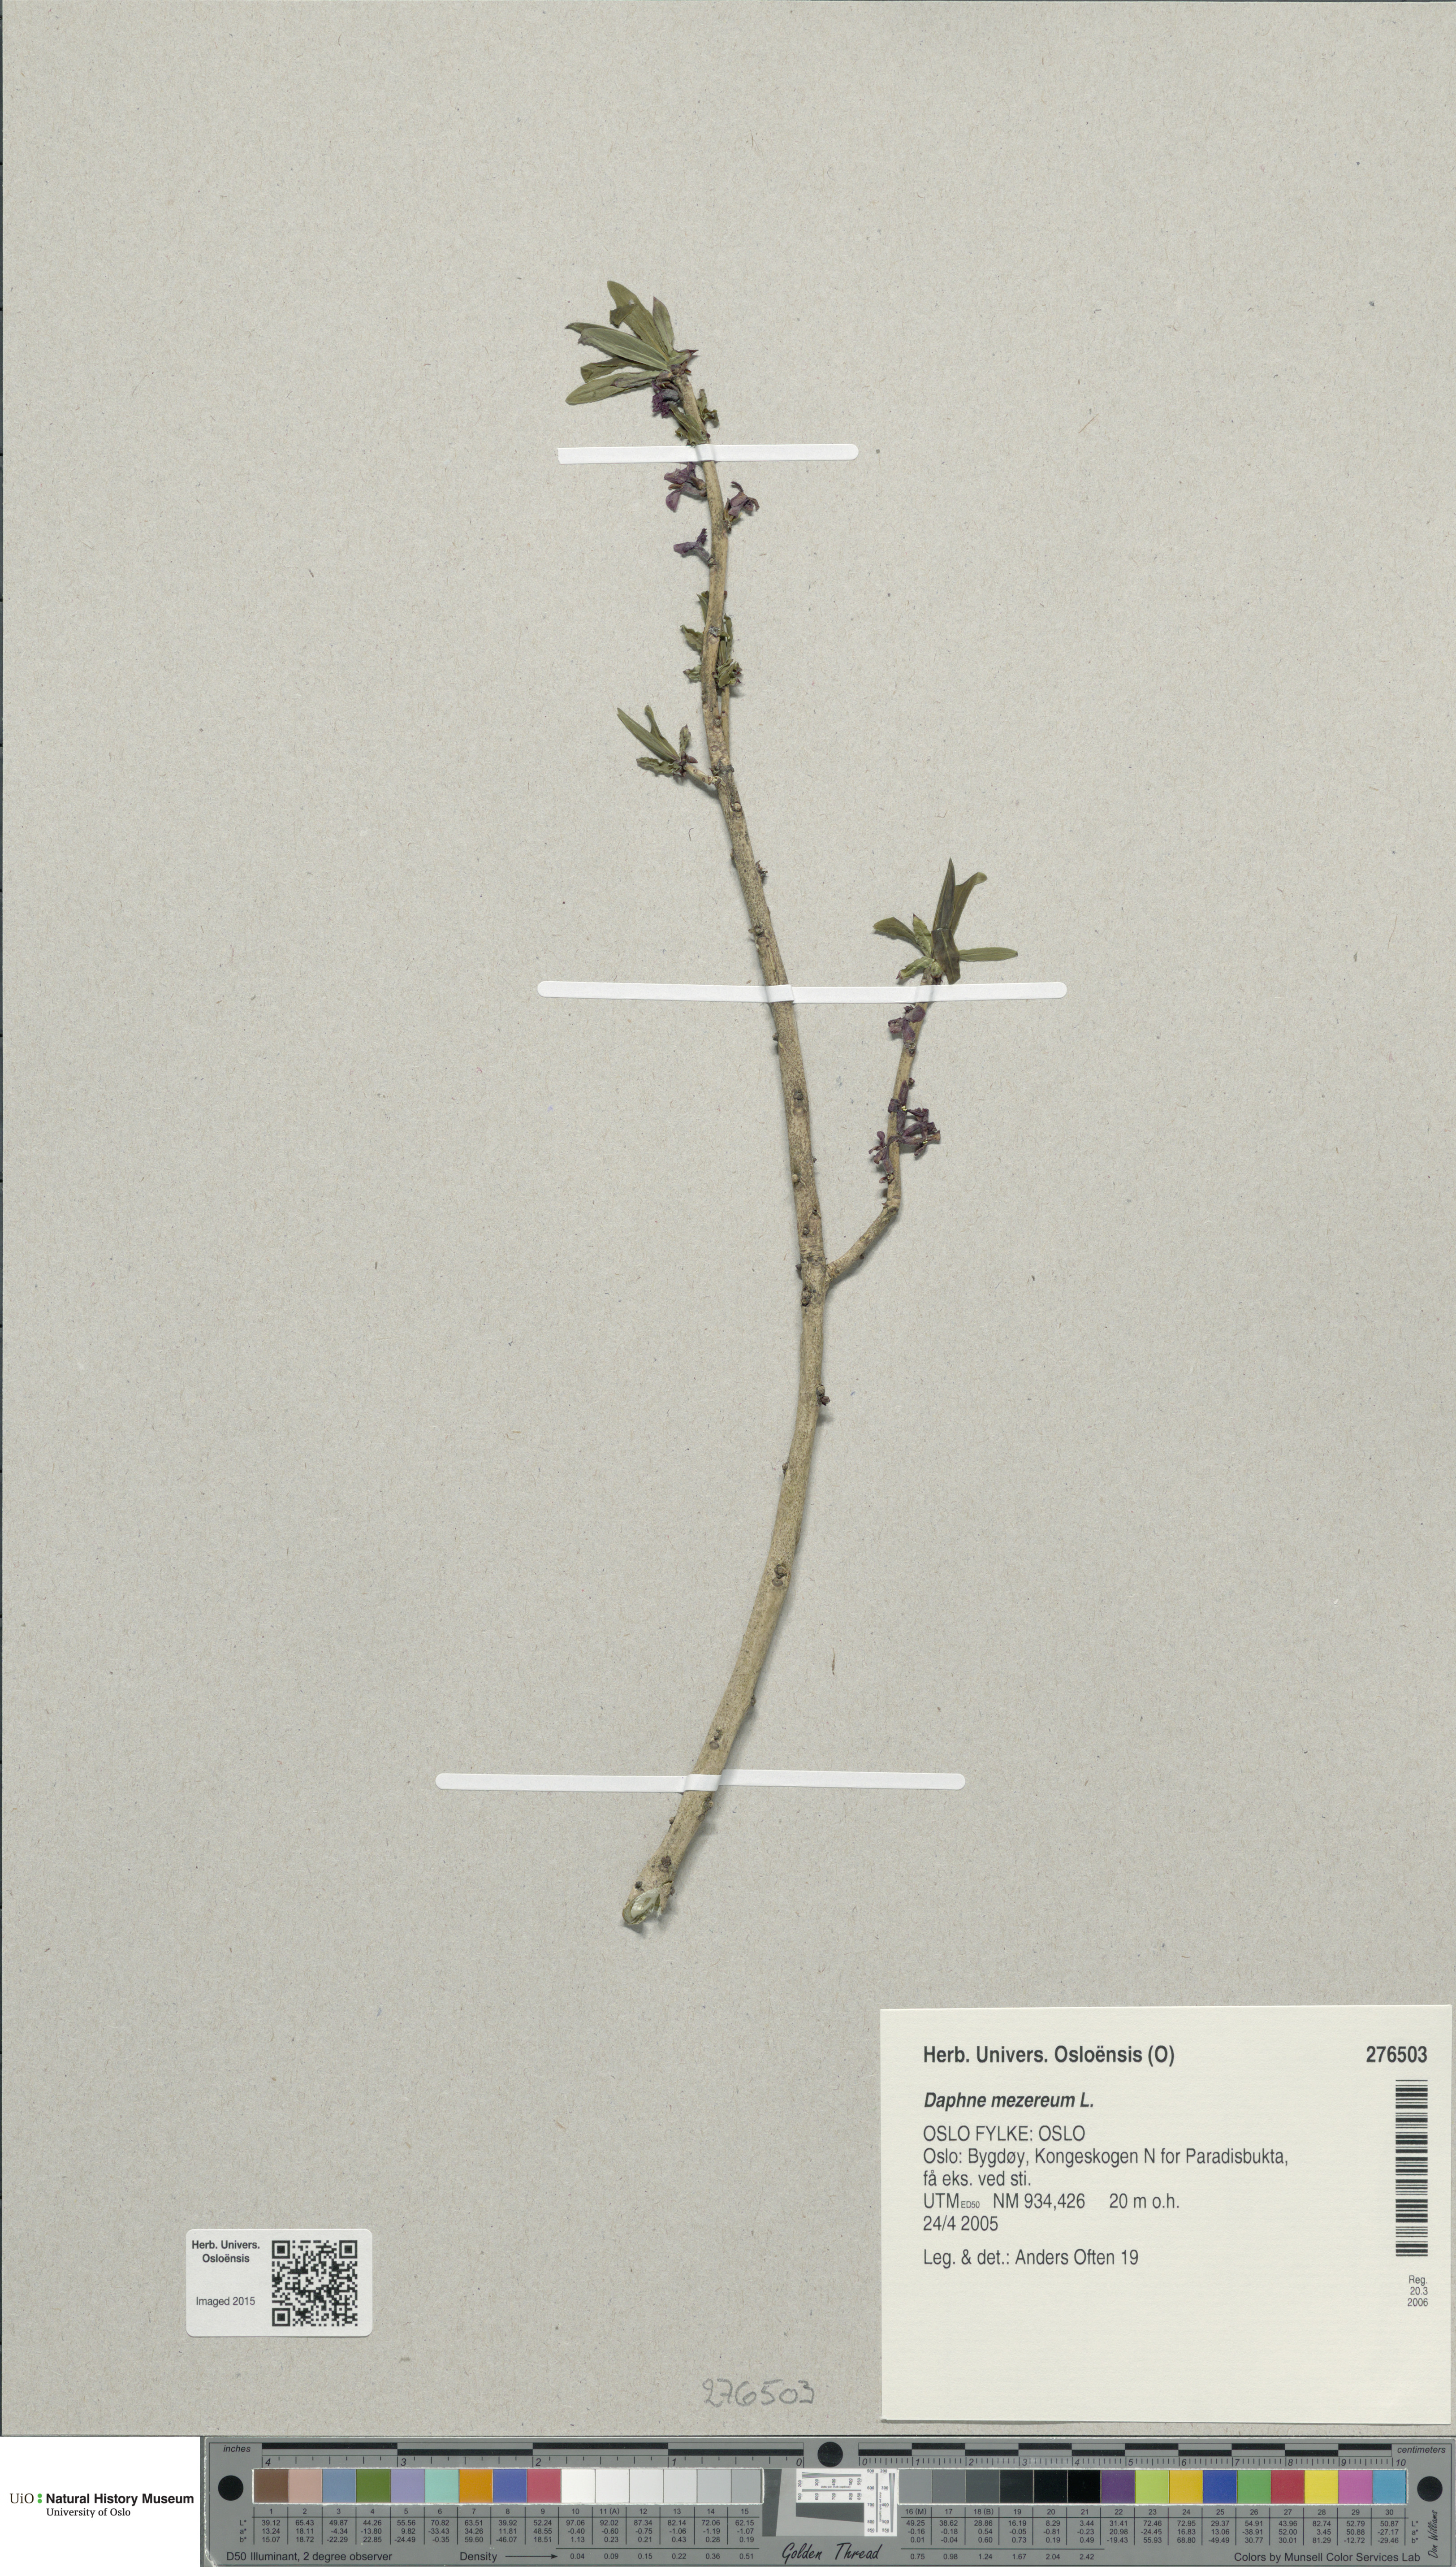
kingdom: Plantae
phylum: Tracheophyta
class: Magnoliopsida
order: Malvales
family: Thymelaeaceae
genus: Daphne
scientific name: Daphne mezereum
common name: Mezereon
